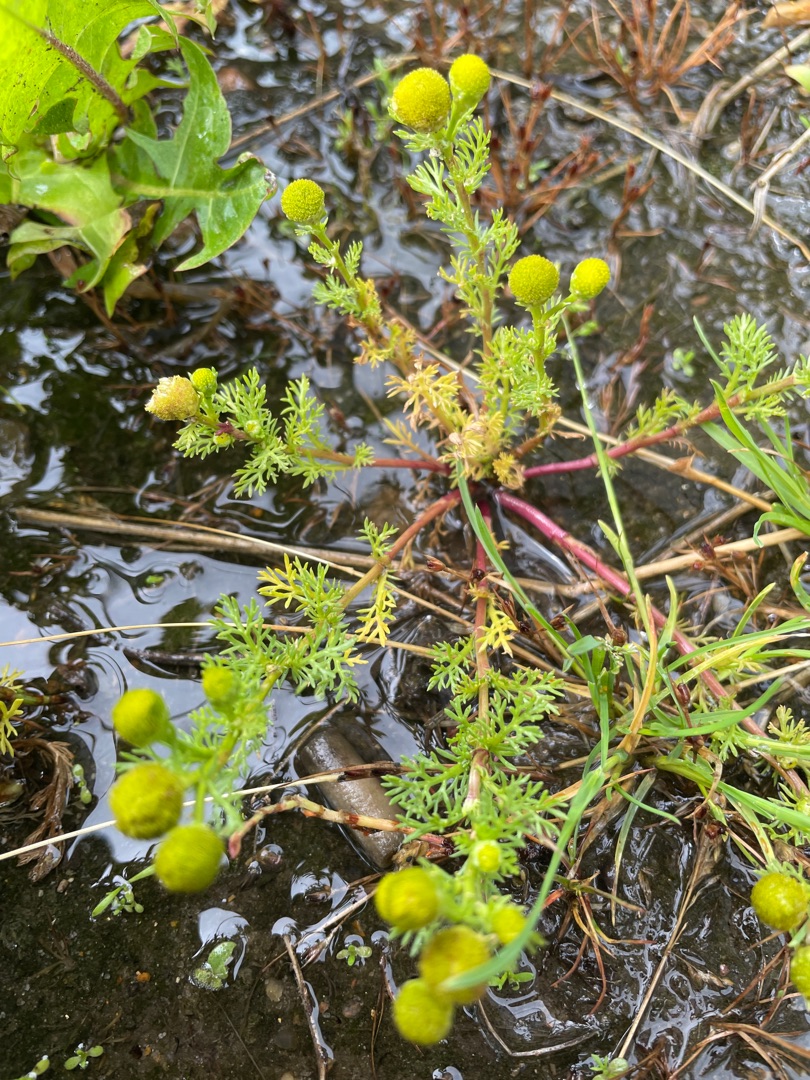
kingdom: Plantae
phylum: Tracheophyta
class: Magnoliopsida
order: Asterales
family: Asteraceae
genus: Matricaria
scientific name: Matricaria discoidea
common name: Skive-kamille
